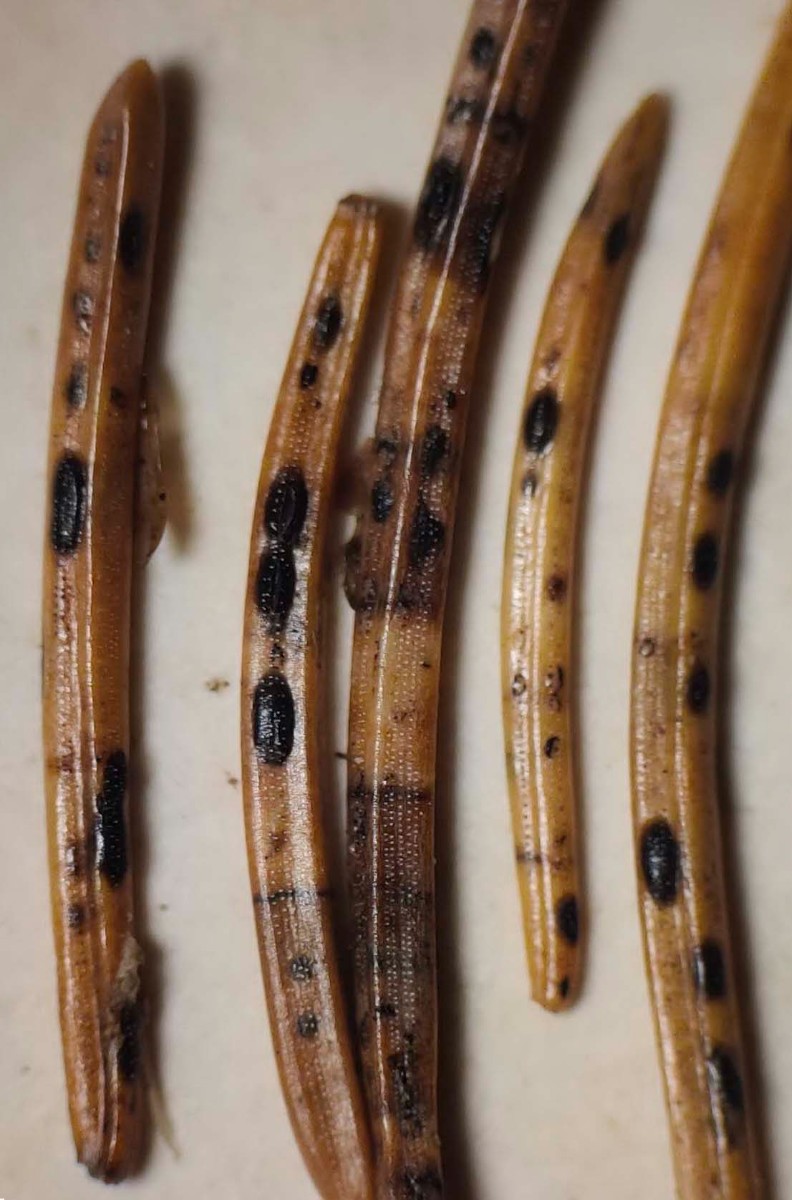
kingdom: Fungi
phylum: Ascomycota
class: Leotiomycetes
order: Rhytismatales
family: Rhytismataceae
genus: Lophodermium
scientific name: Lophodermium piceae
